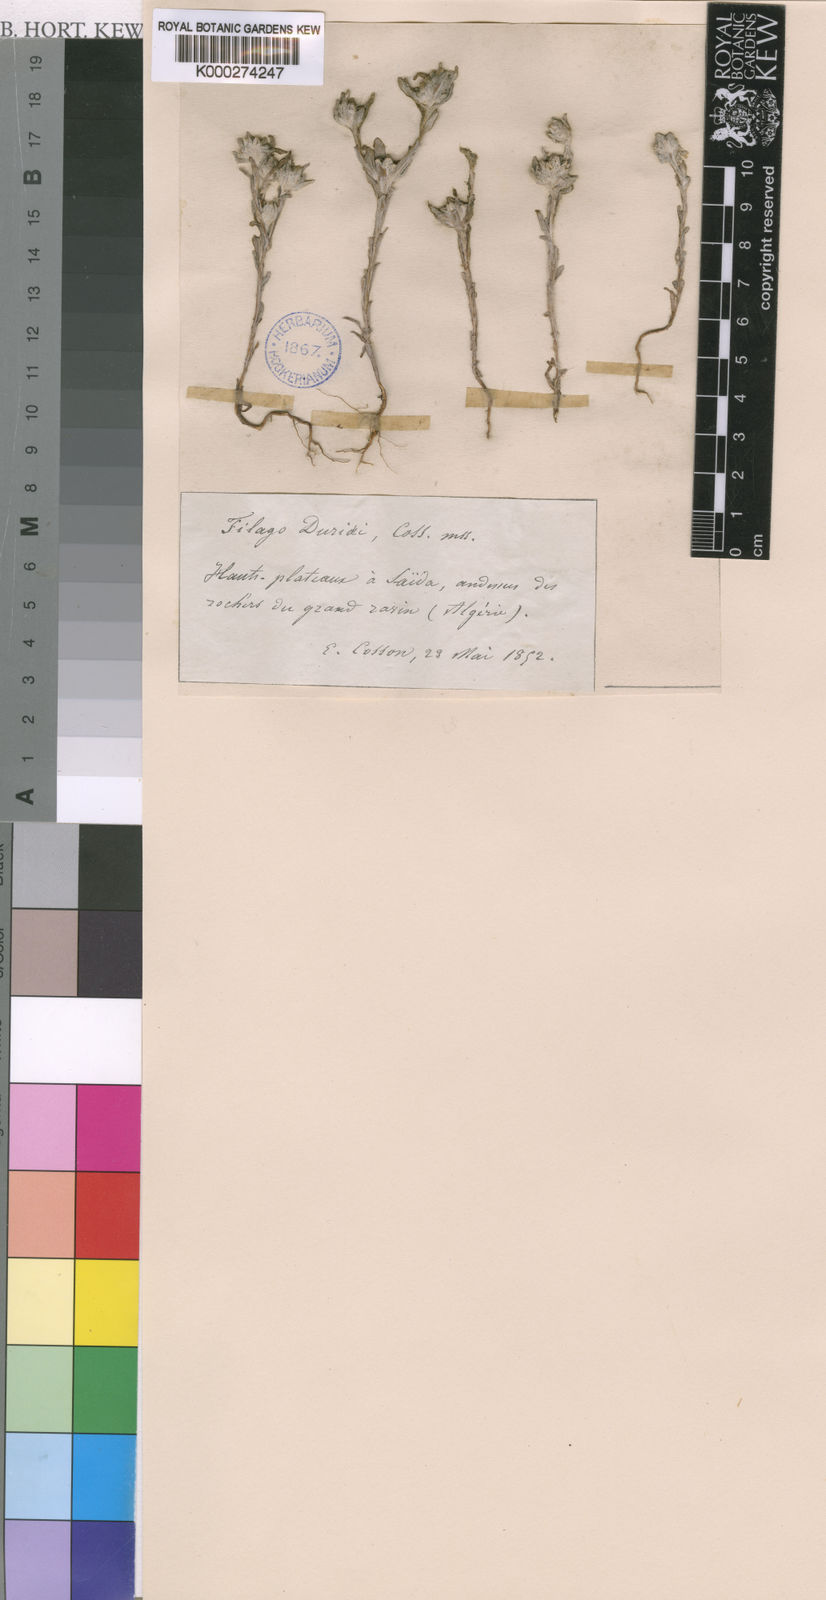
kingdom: Plantae
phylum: Tracheophyta
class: Magnoliopsida
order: Asterales
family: Asteraceae
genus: Filago
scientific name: Filago duriaei
